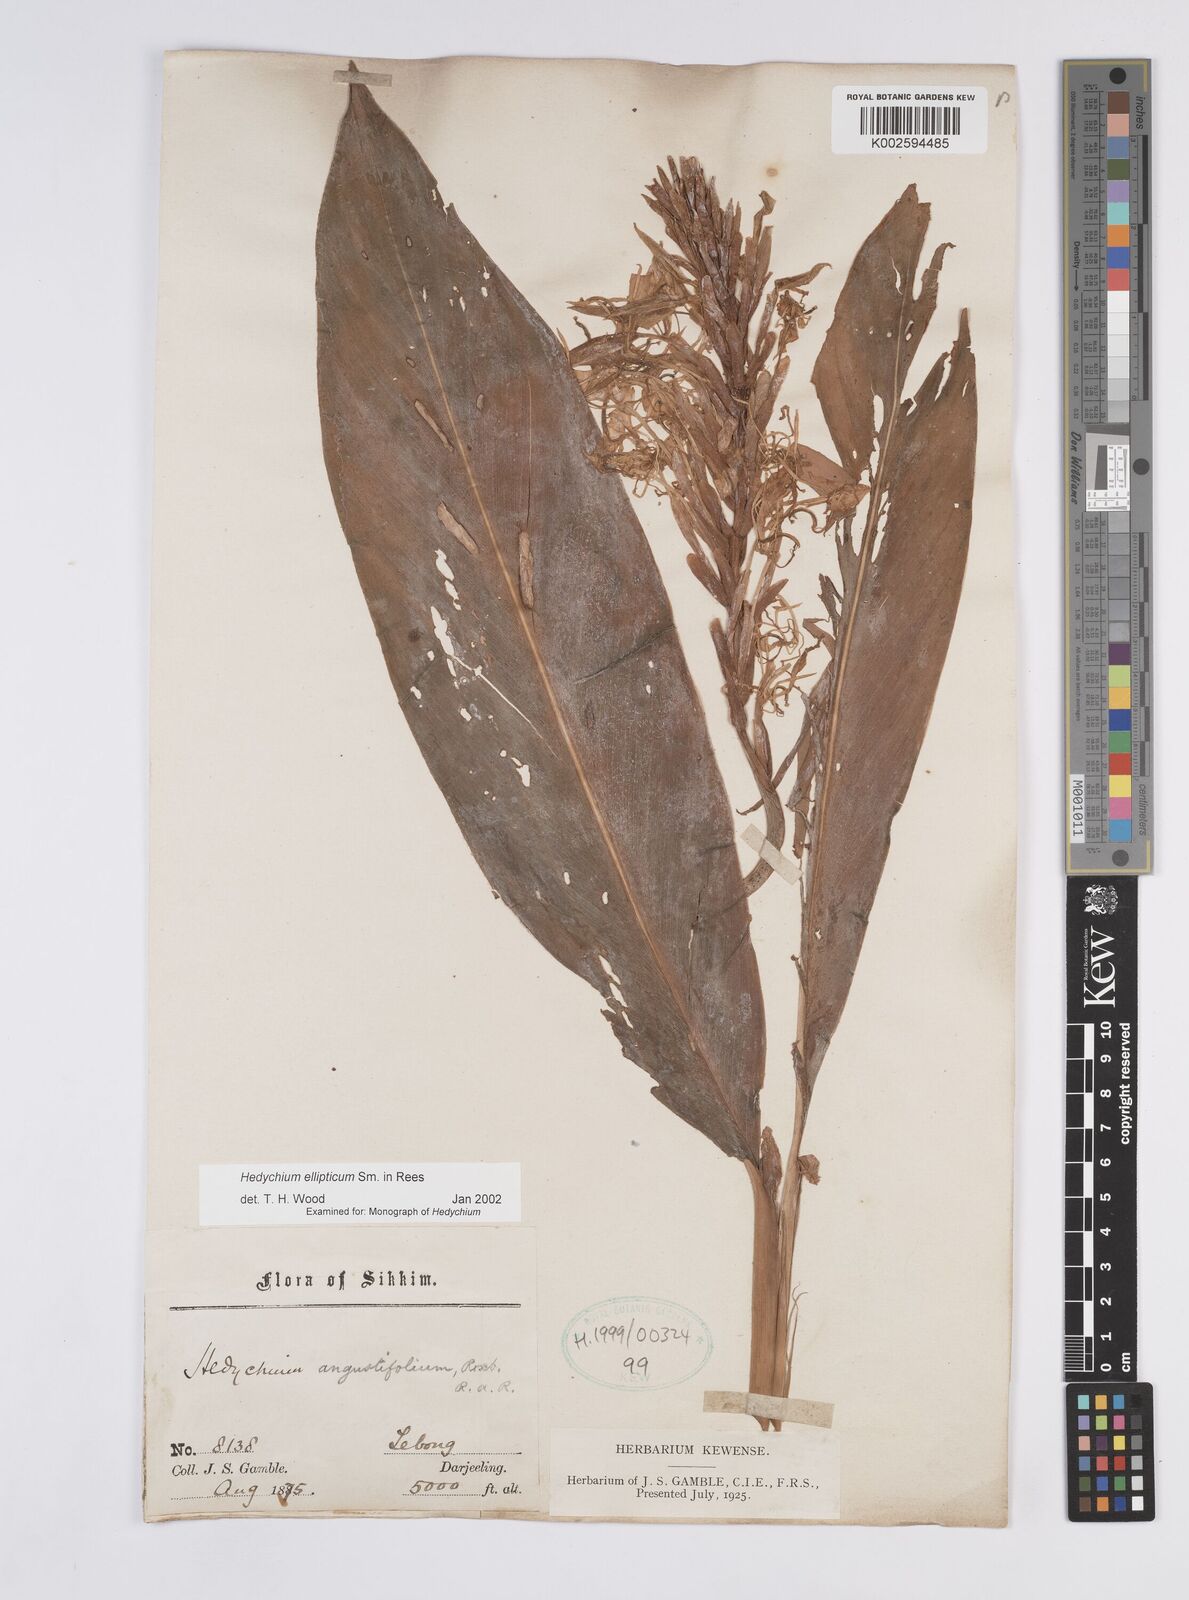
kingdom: Plantae
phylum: Tracheophyta
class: Liliopsida
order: Zingiberales
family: Zingiberaceae
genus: Hedychium
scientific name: Hedychium ellipticum
